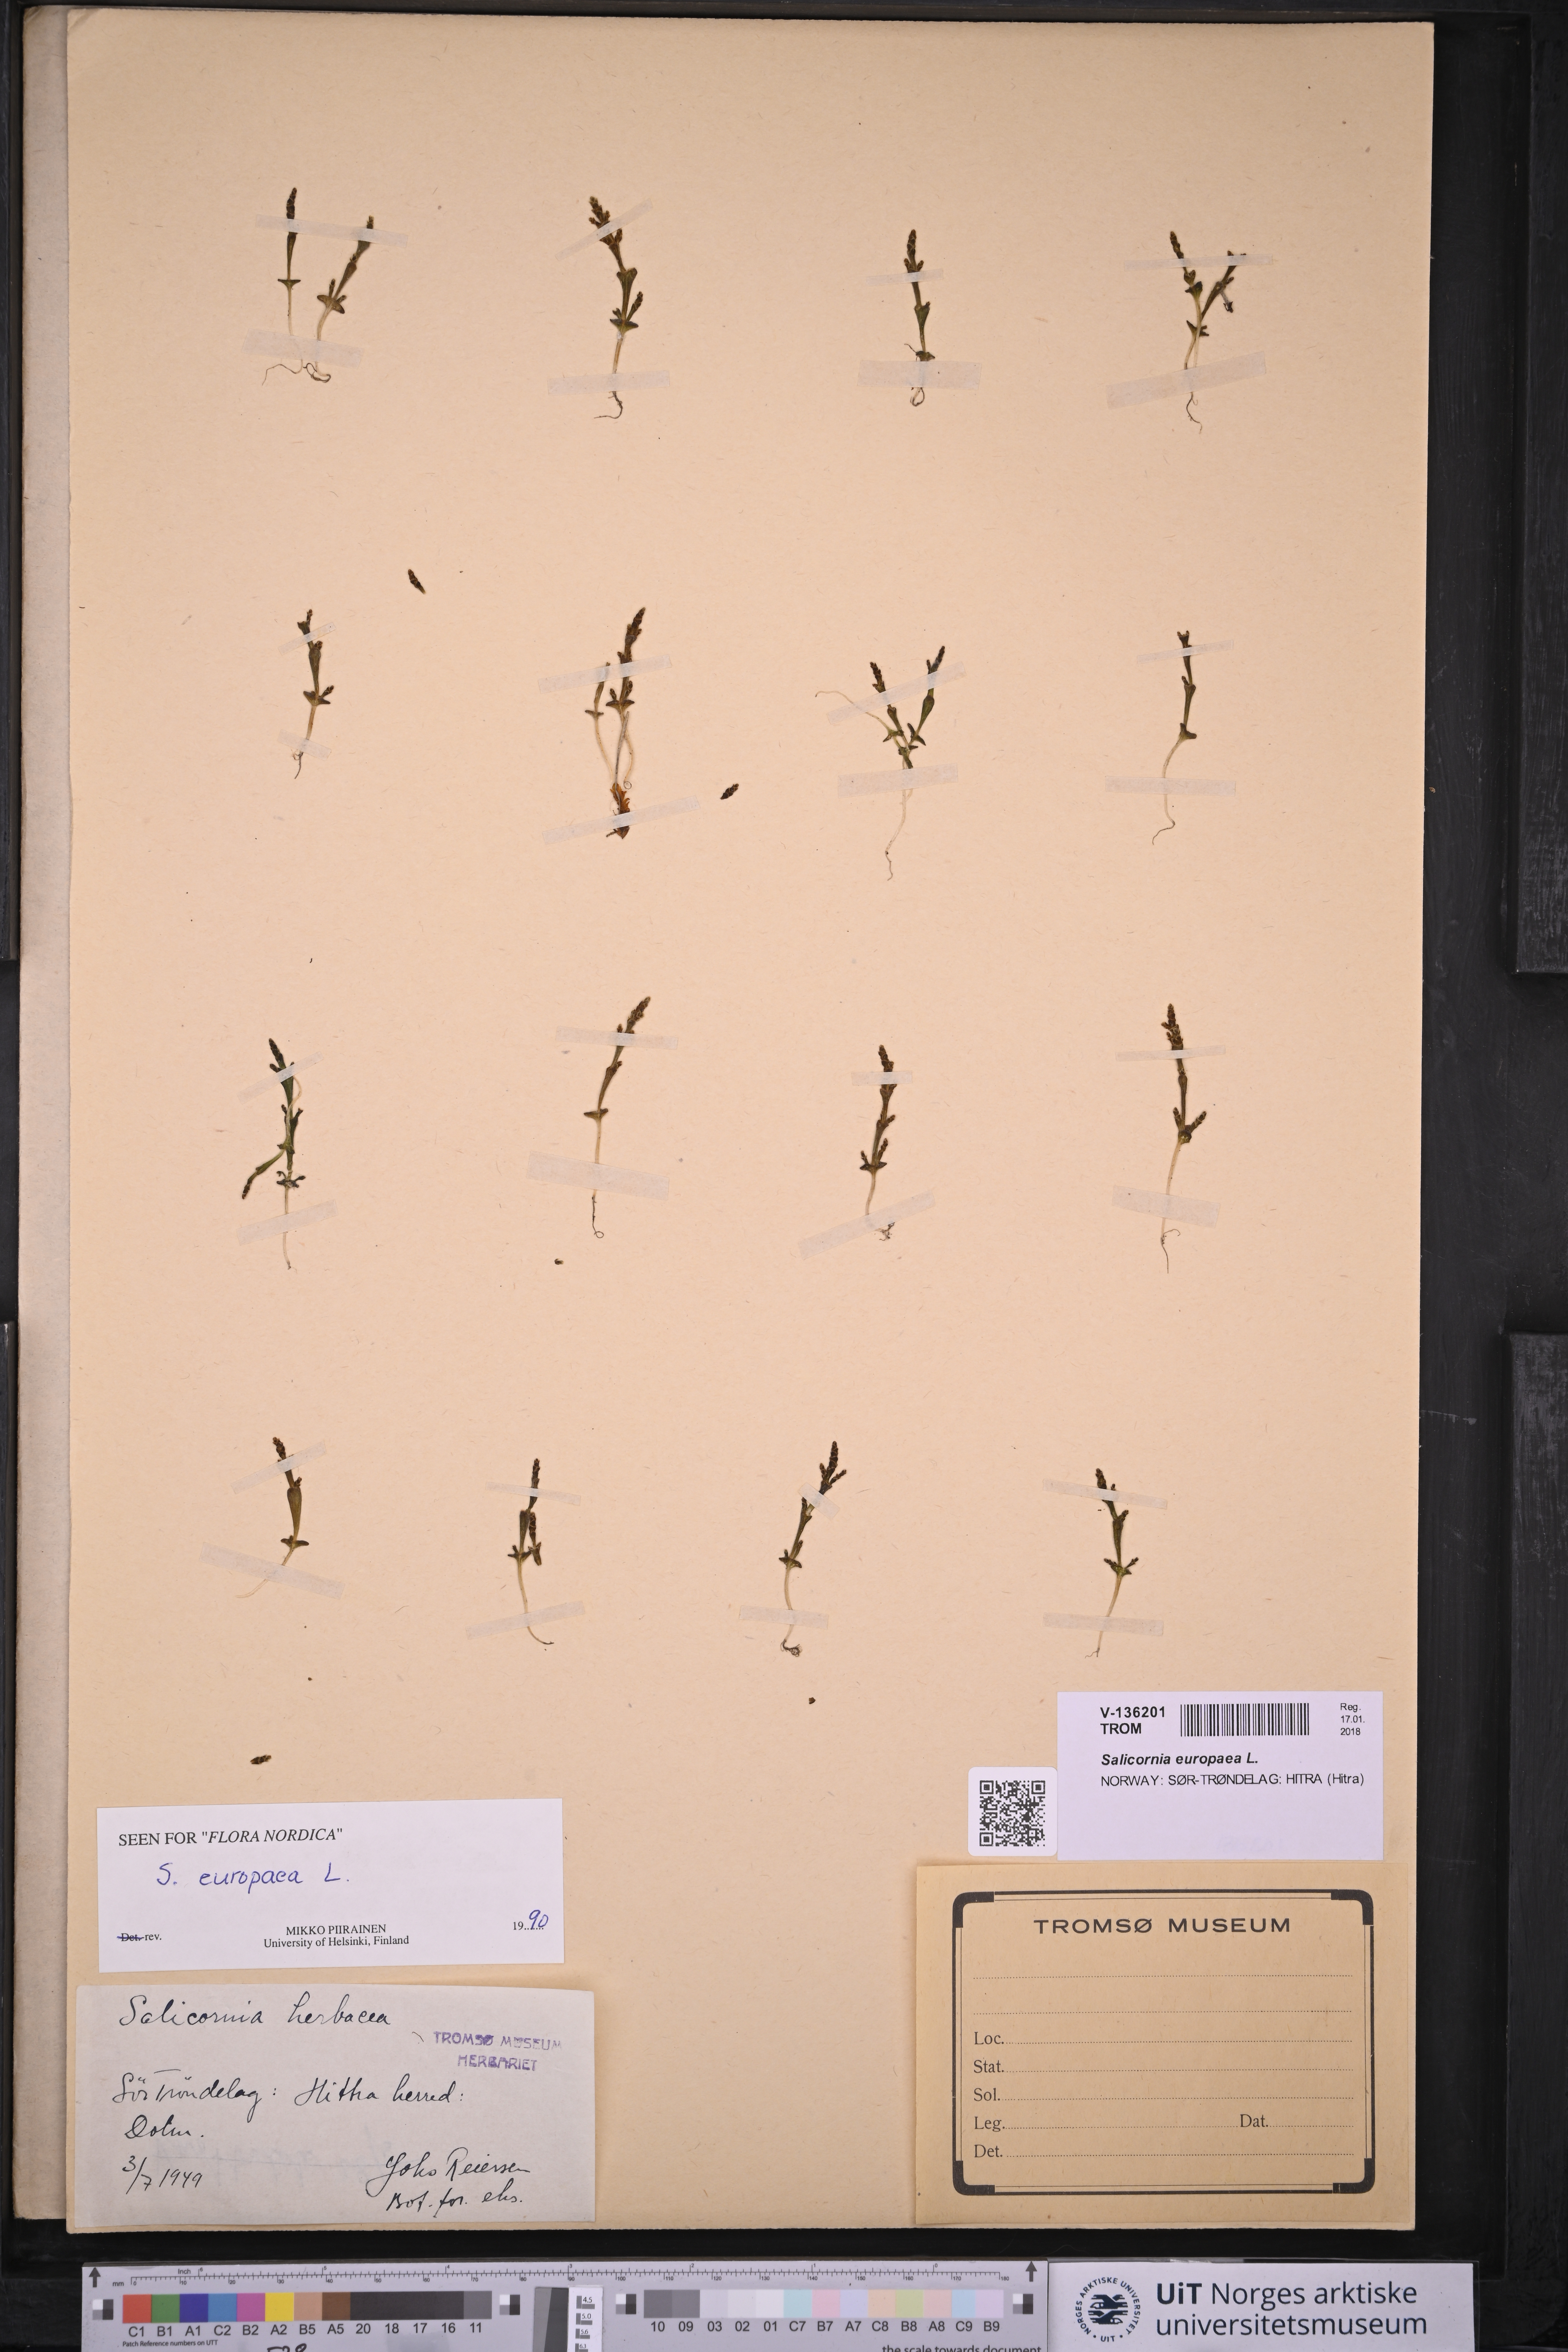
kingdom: Plantae
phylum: Tracheophyta
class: Magnoliopsida
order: Caryophyllales
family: Amaranthaceae
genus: Salicornia
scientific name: Salicornia europaea
